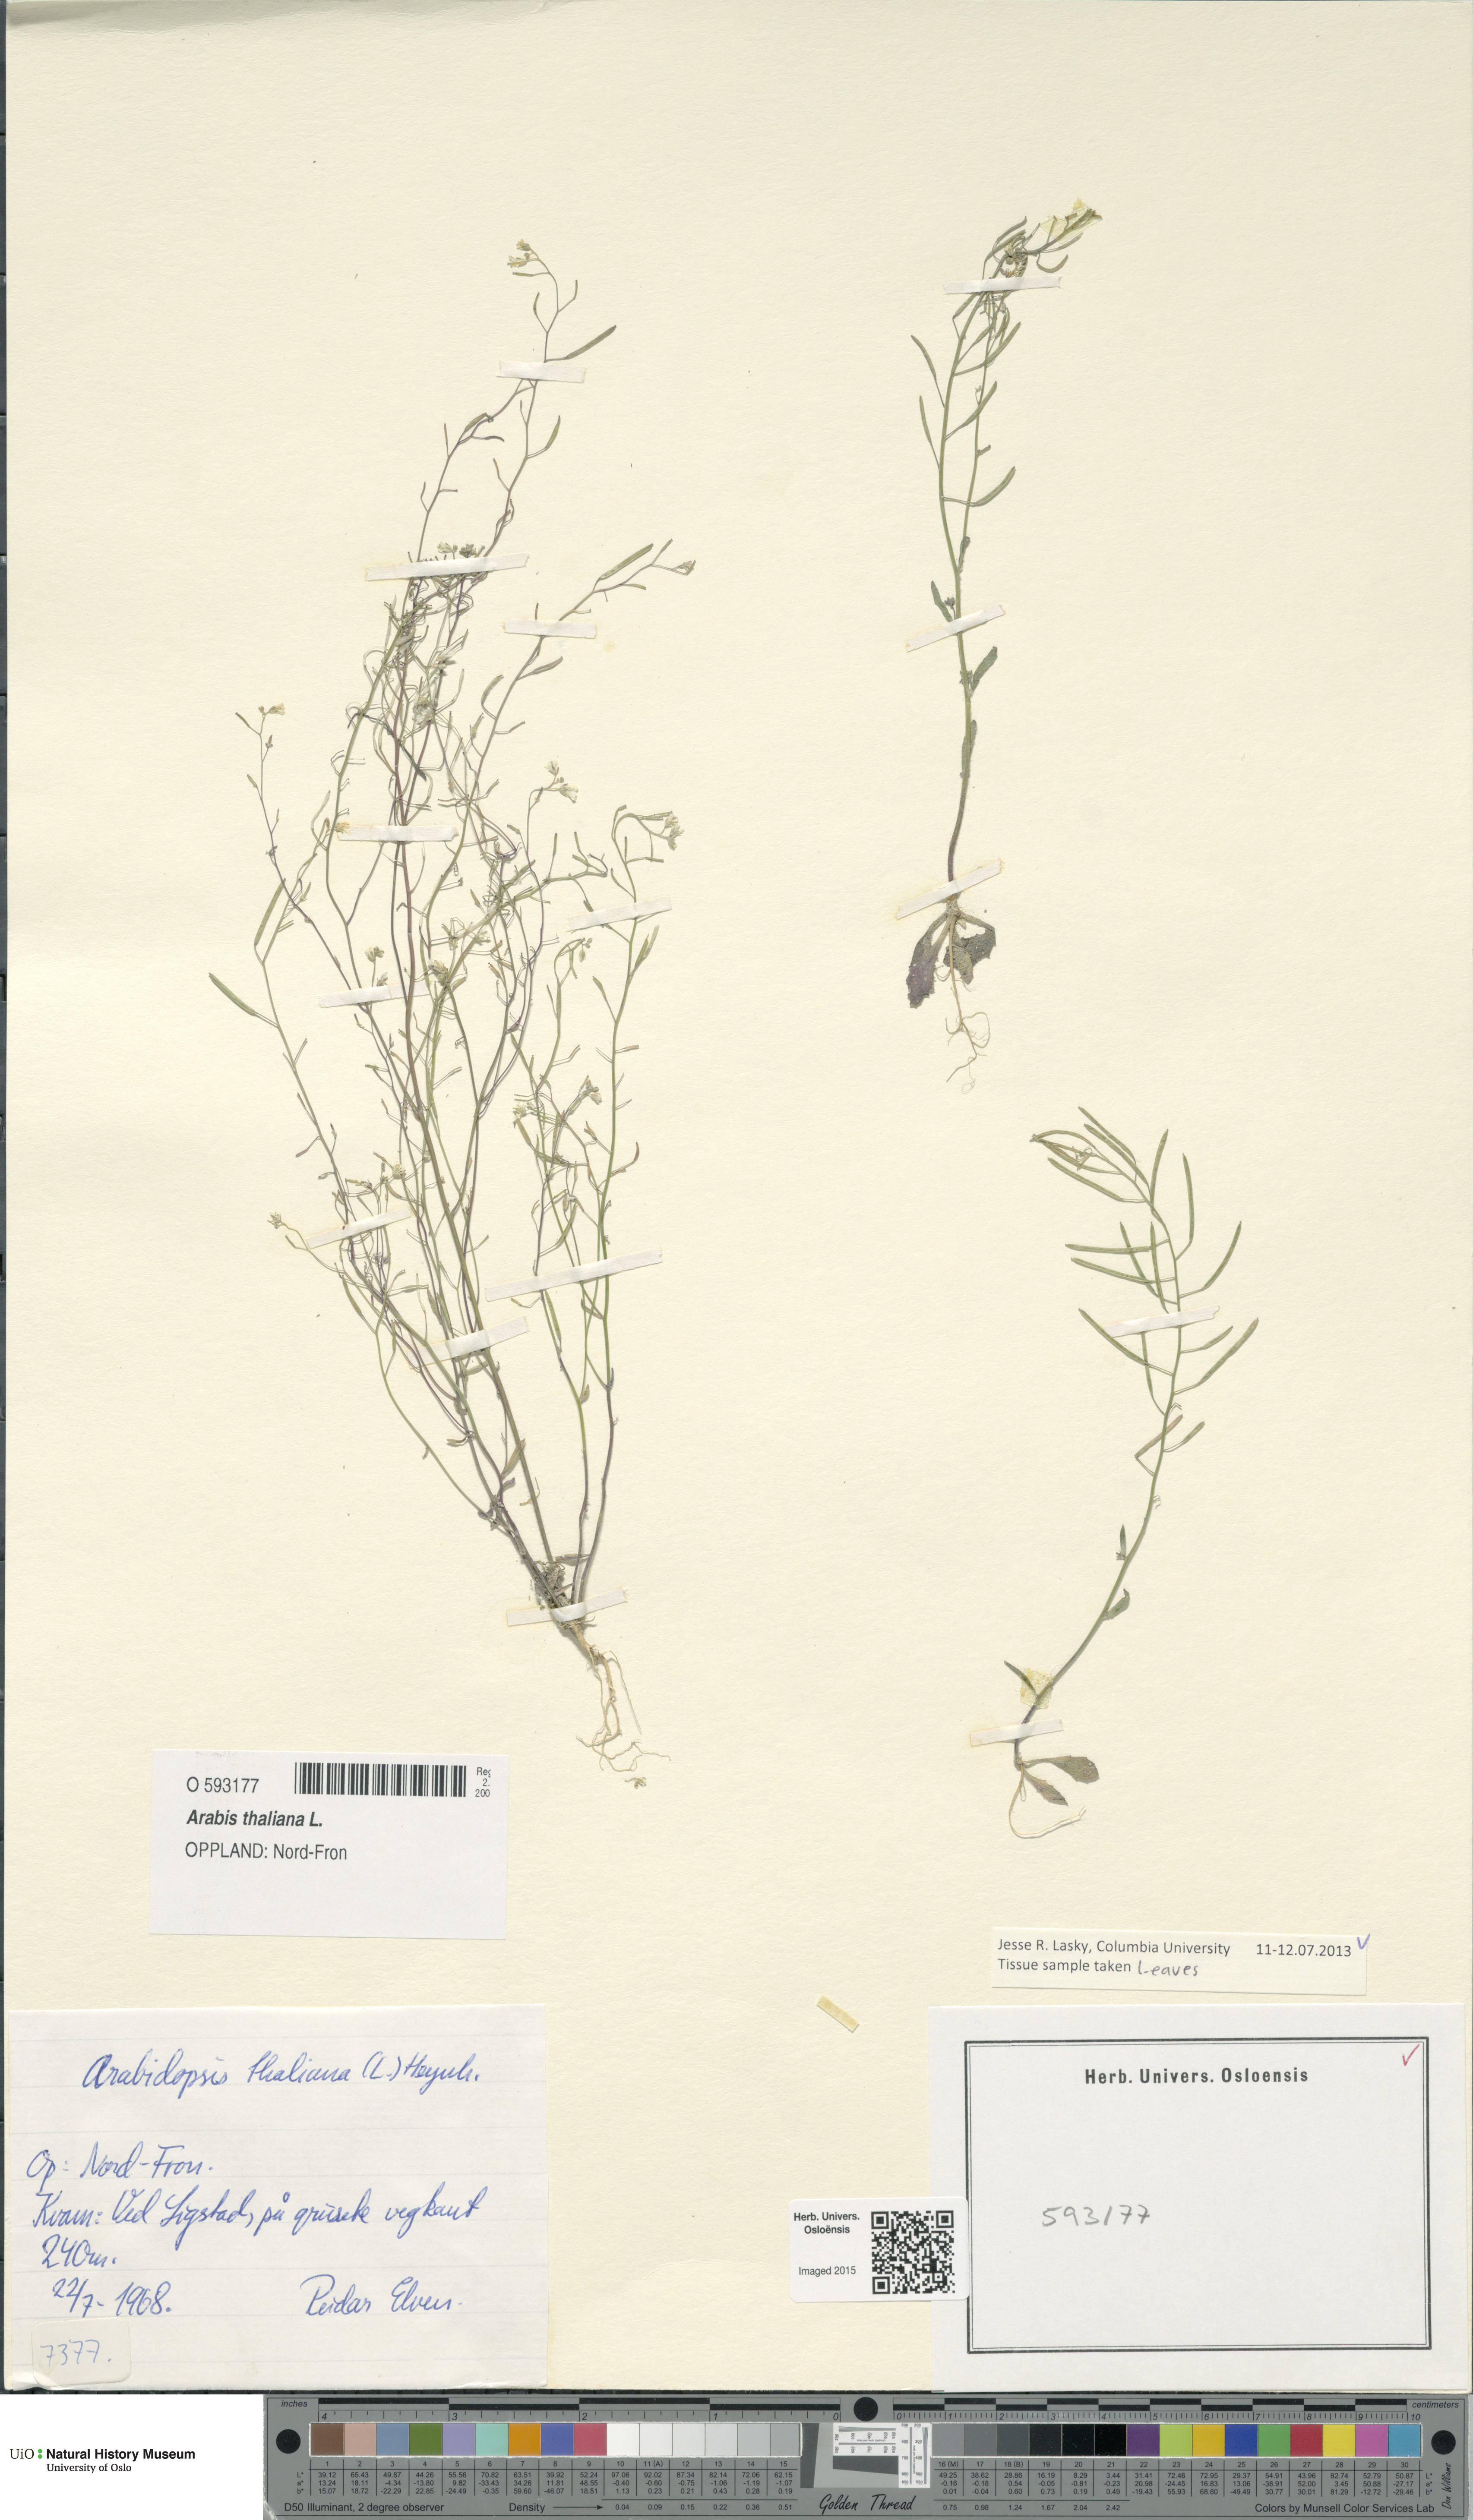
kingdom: Plantae
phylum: Tracheophyta
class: Magnoliopsida
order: Brassicales
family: Brassicaceae
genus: Arabidopsis
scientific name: Arabidopsis thaliana
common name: Thale cress
